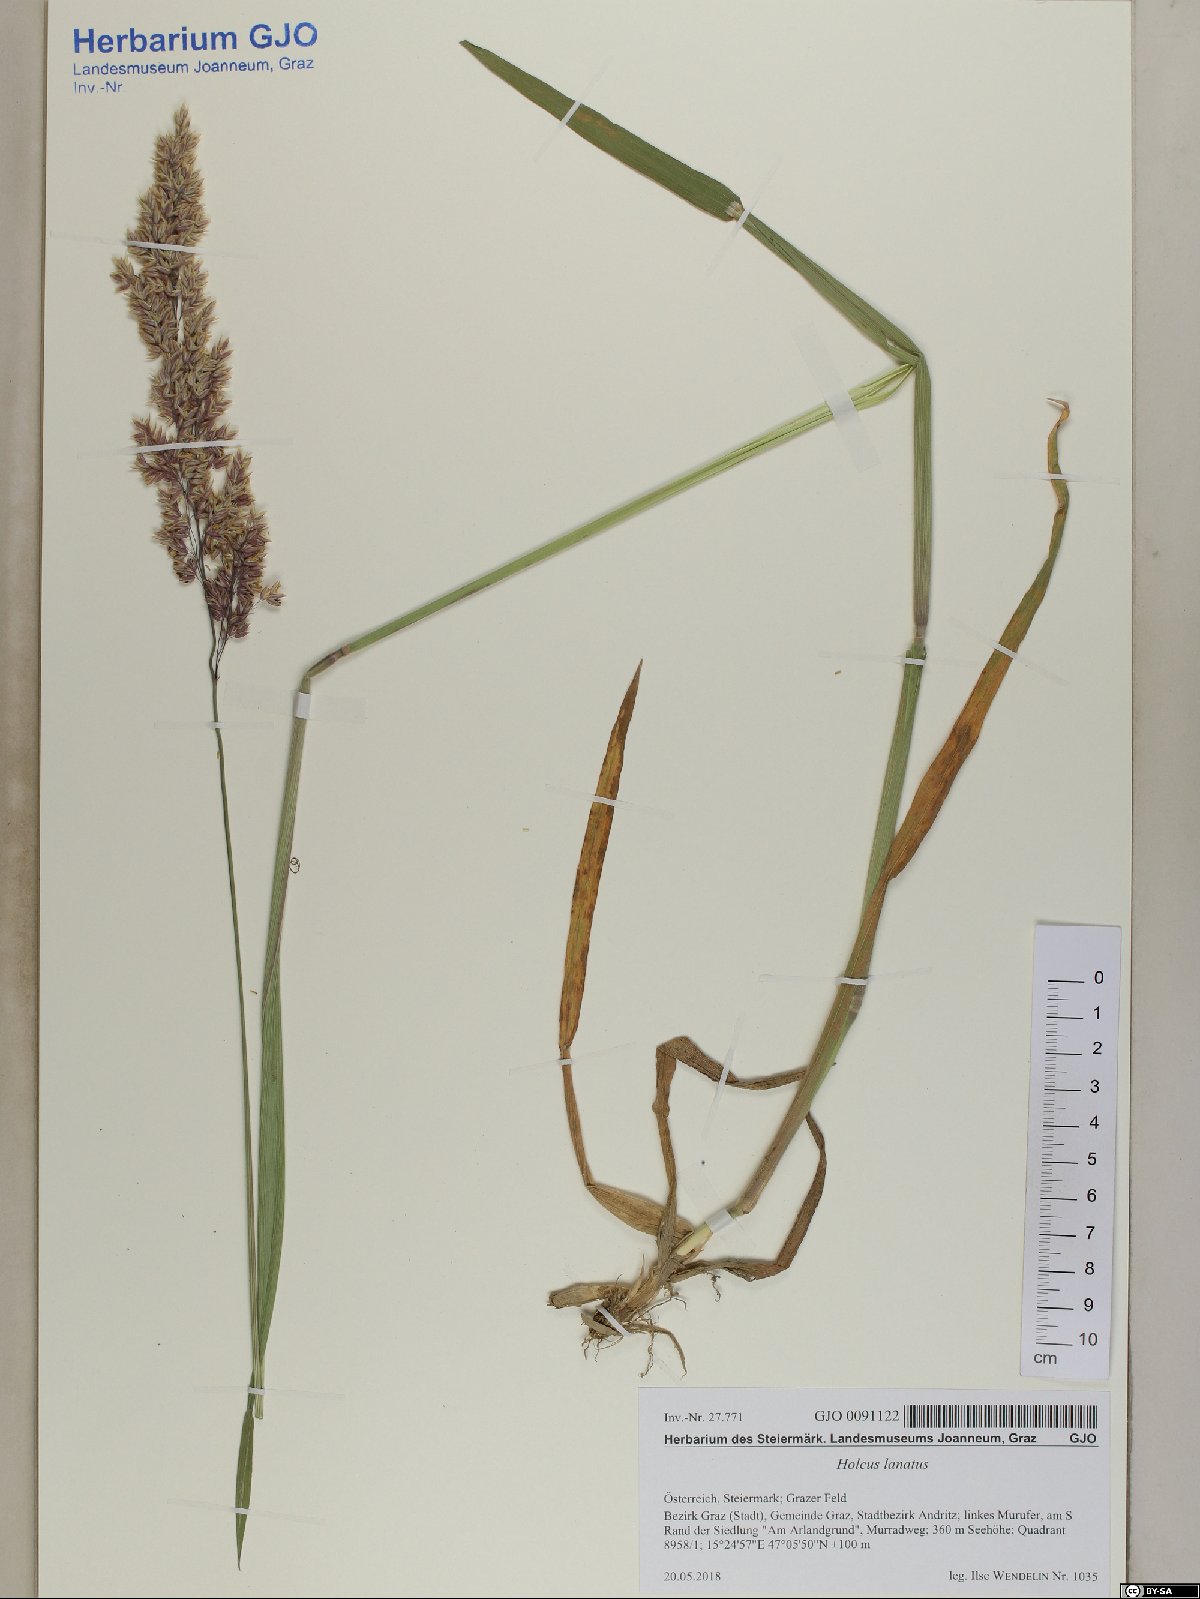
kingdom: Plantae
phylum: Tracheophyta
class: Liliopsida
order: Poales
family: Poaceae
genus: Holcus
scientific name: Holcus lanatus
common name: Yorkshire-fog
